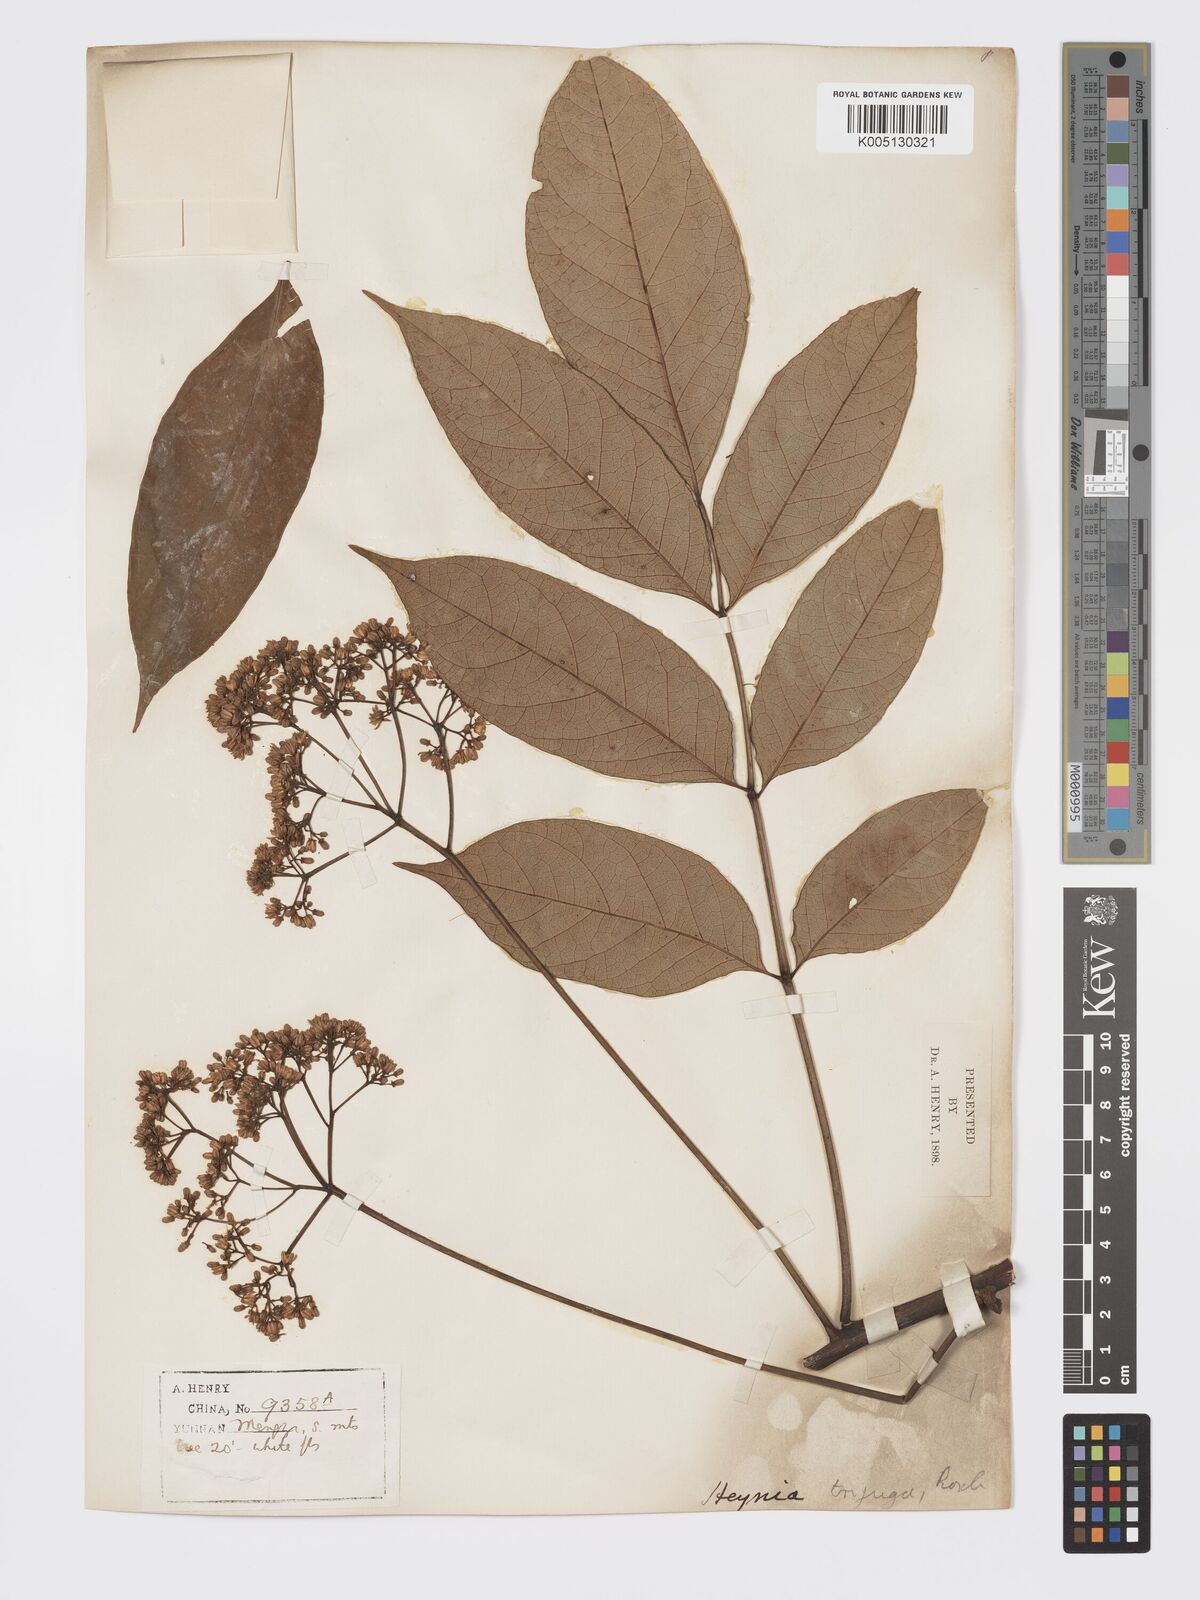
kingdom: Plantae
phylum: Tracheophyta
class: Magnoliopsida
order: Sapindales
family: Meliaceae
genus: Heynea
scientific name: Heynea trijuga
